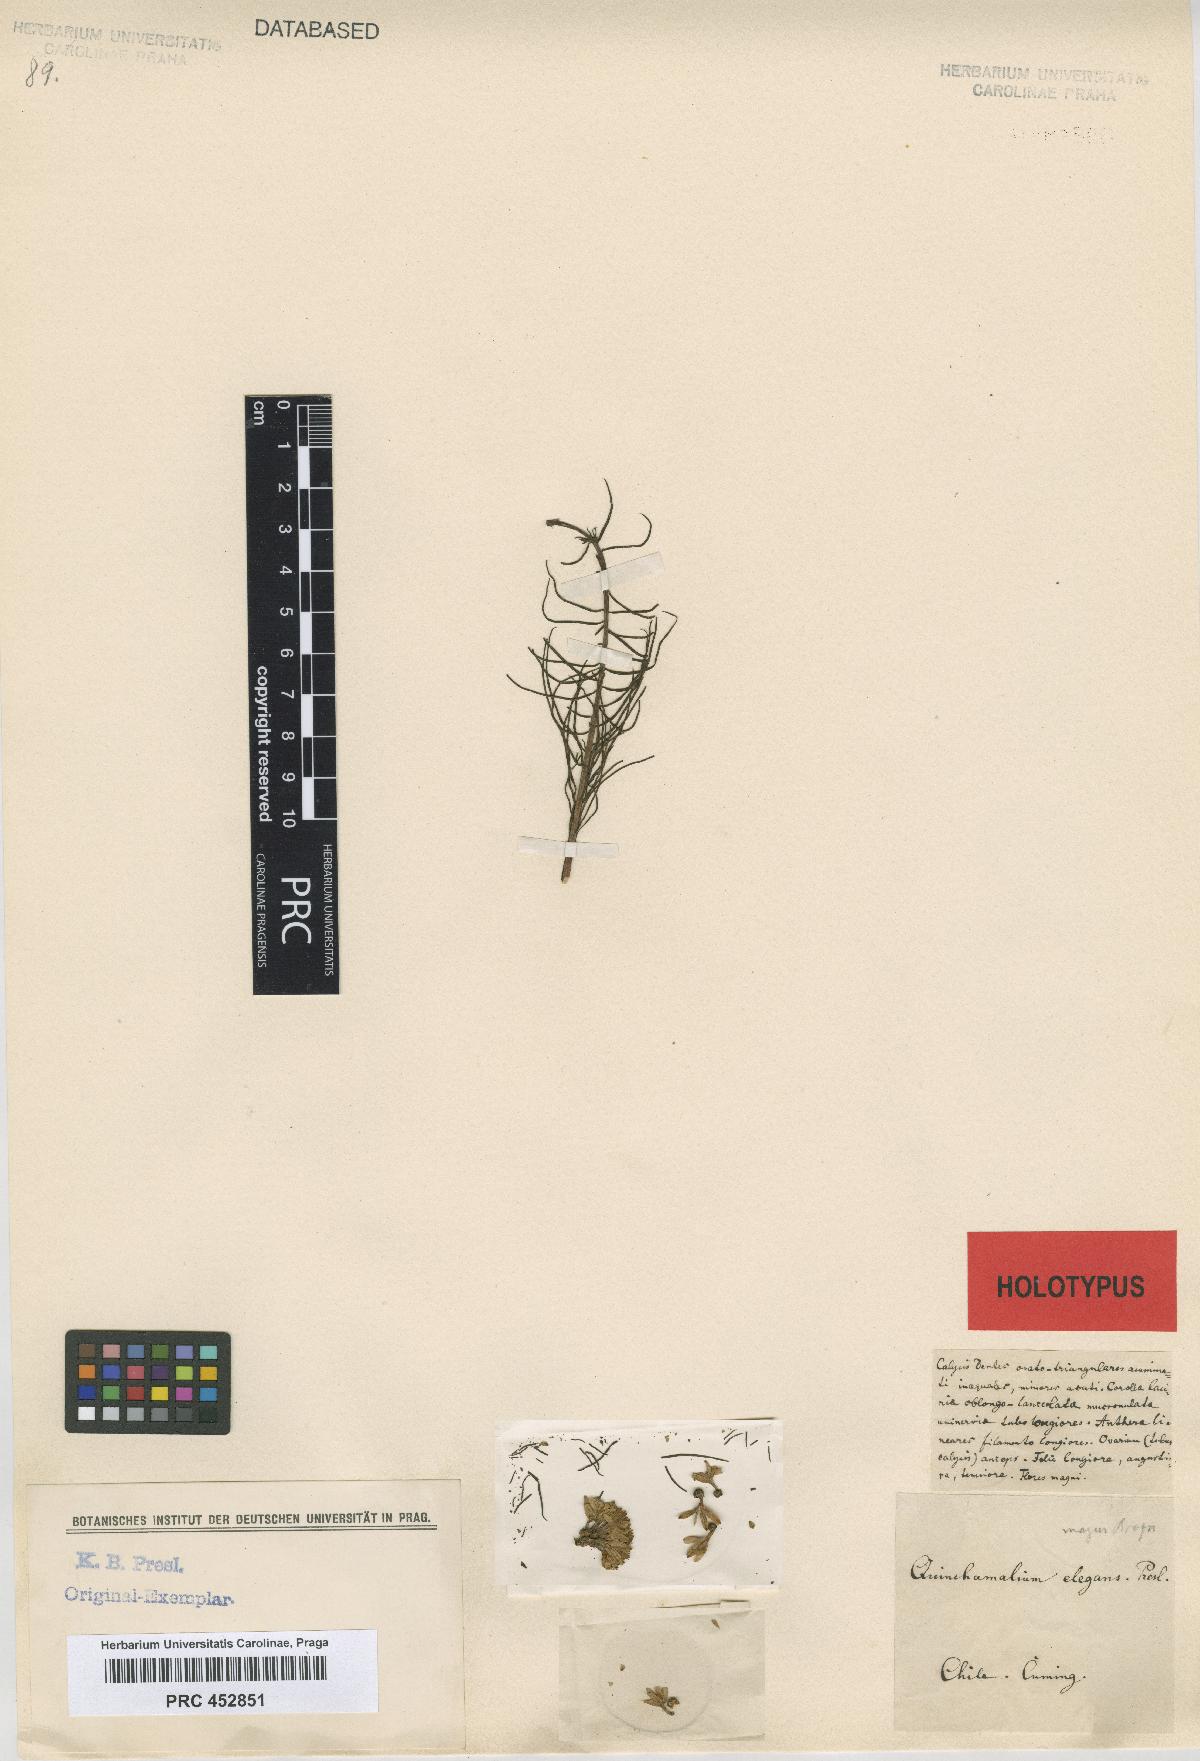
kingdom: Plantae
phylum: Tracheophyta
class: Magnoliopsida
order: Santalales
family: Schoepfiaceae
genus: Quinchamalium
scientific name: Quinchamalium chilense
